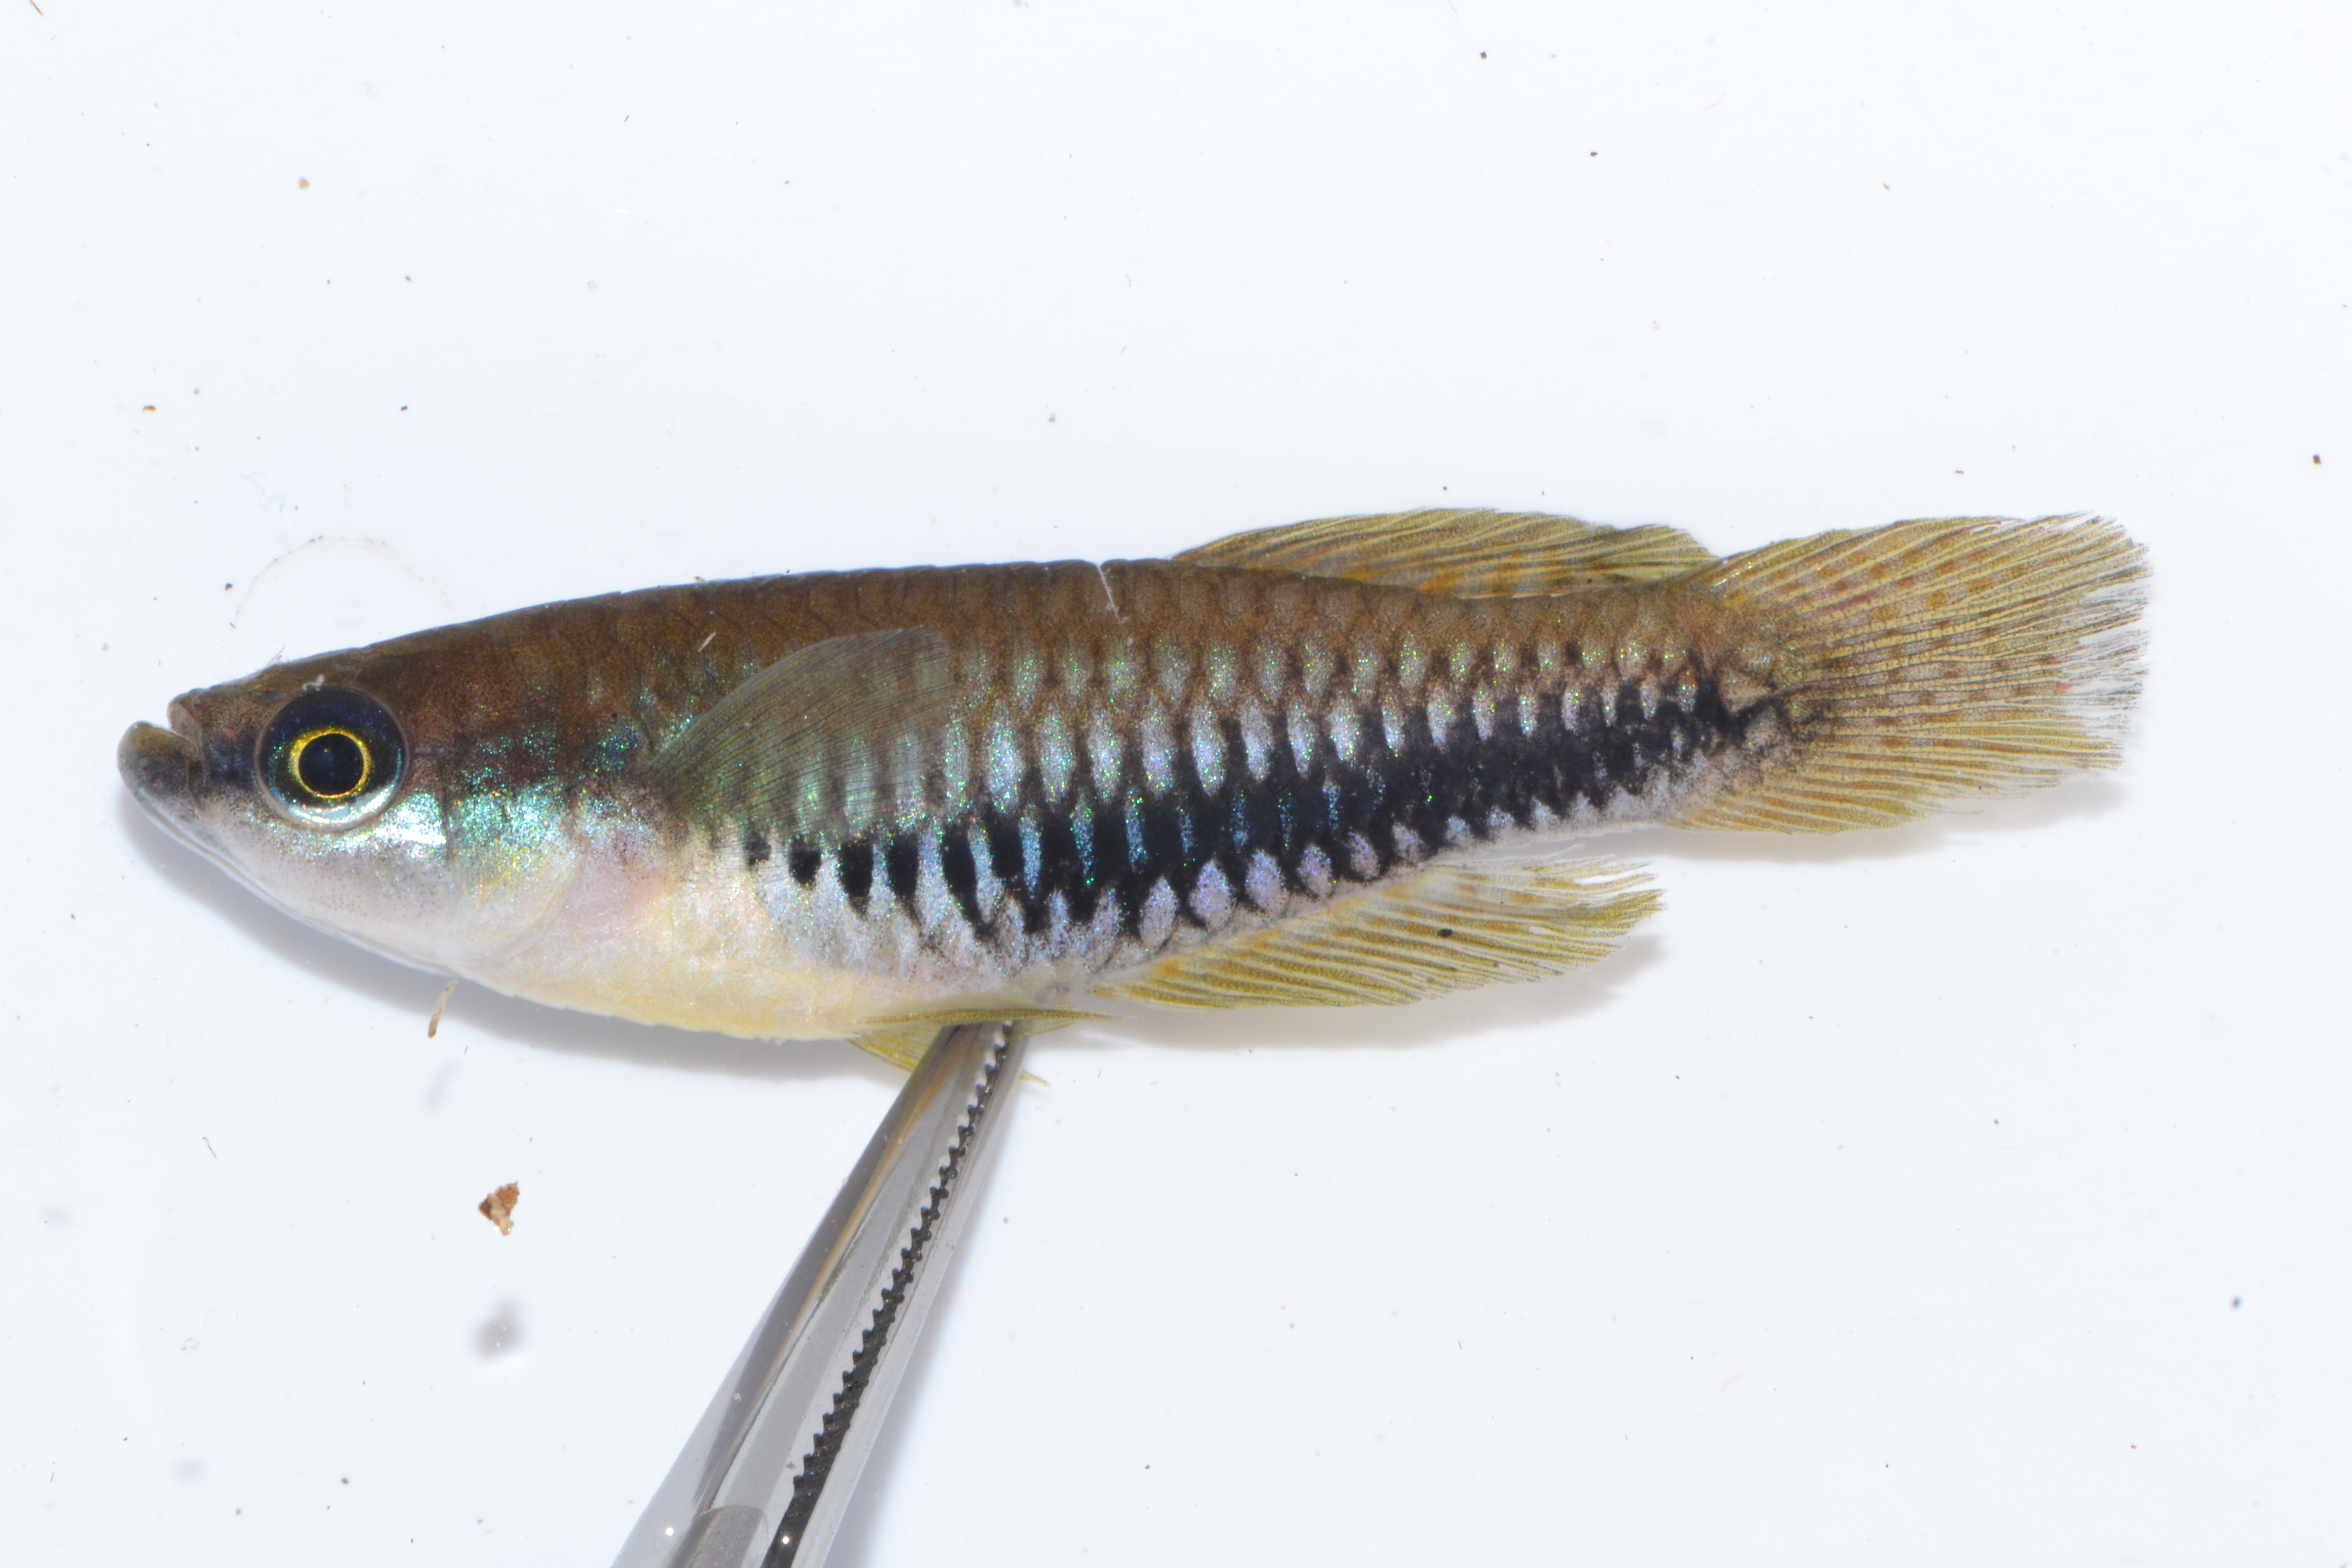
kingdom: Animalia
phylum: Chordata
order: Cyprinodontiformes
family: Poeciliidae
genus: Lacustricola
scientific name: Lacustricola katangae
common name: Striped topminnow
